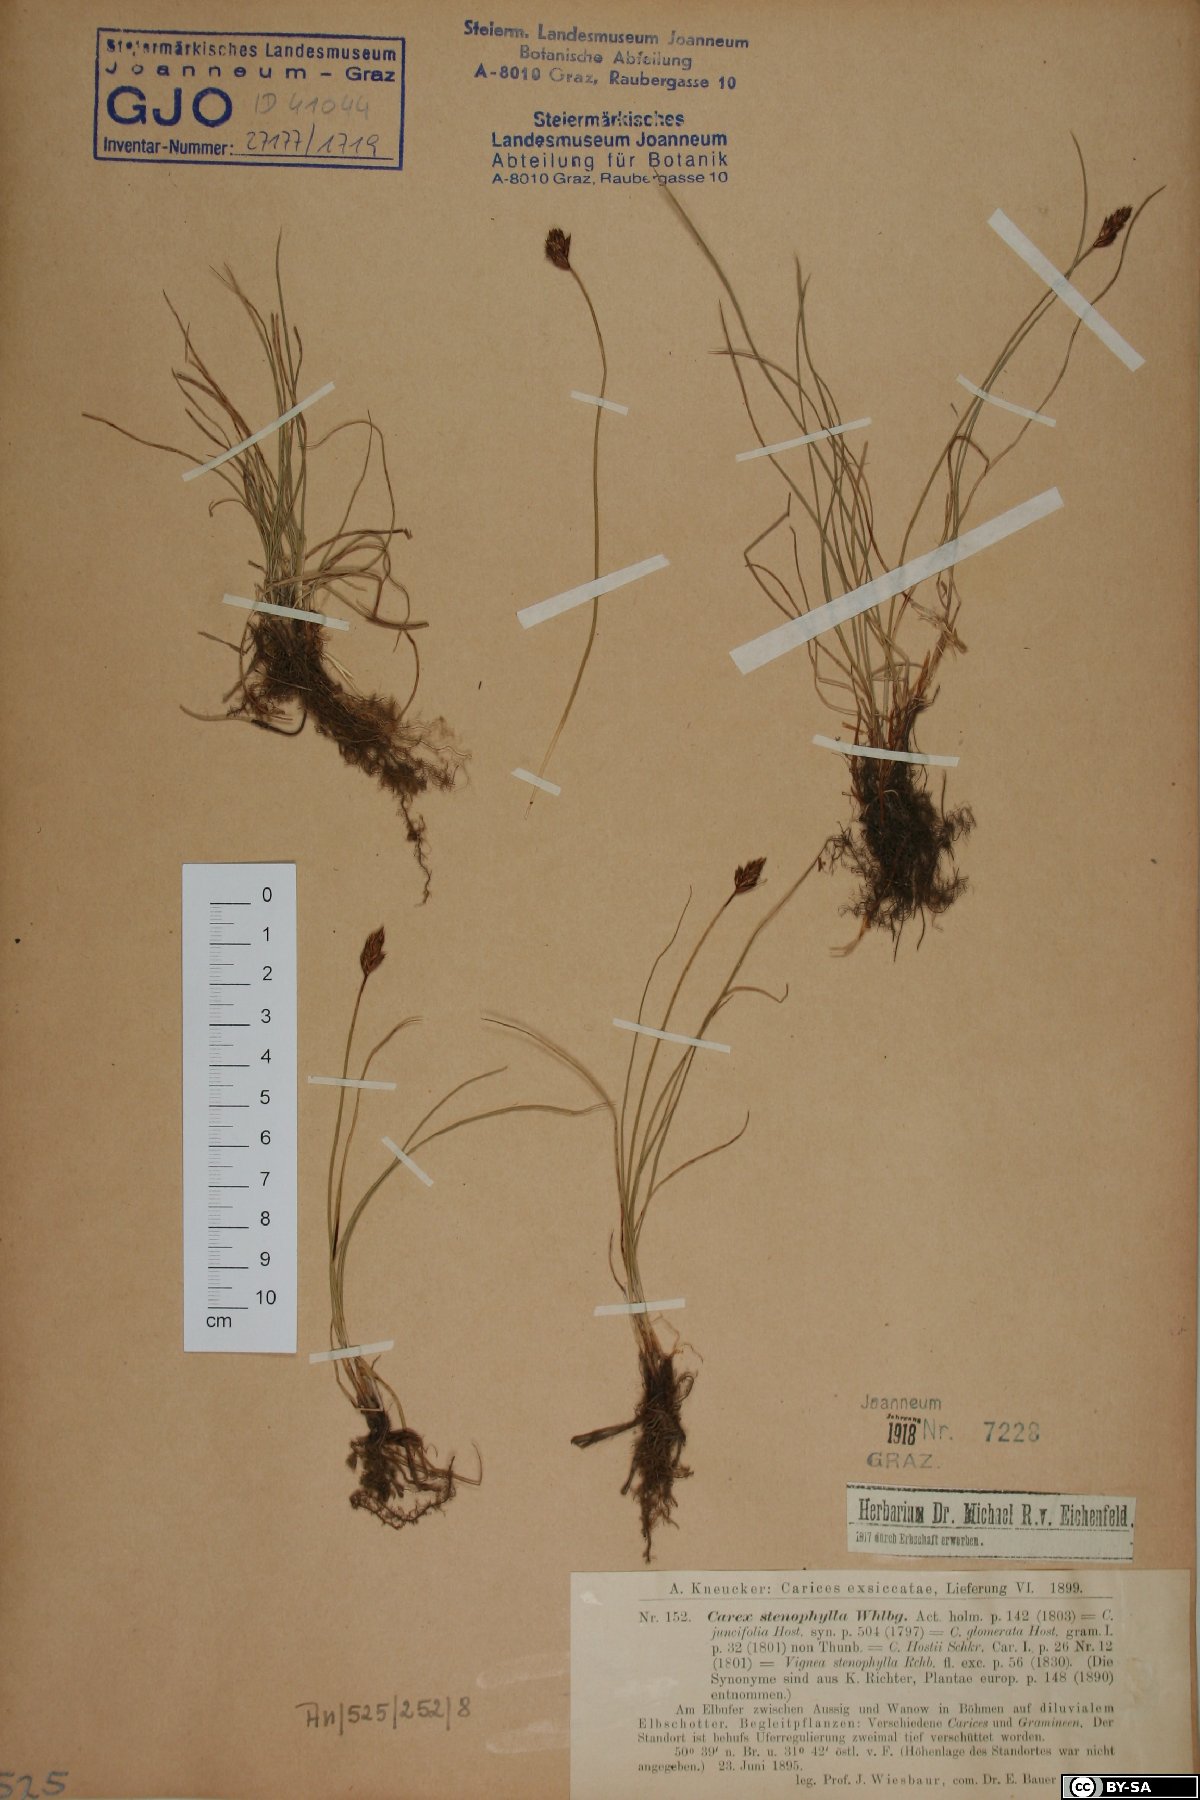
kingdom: Plantae
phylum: Tracheophyta
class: Liliopsida
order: Poales
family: Cyperaceae
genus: Carex
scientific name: Carex stenophylla
